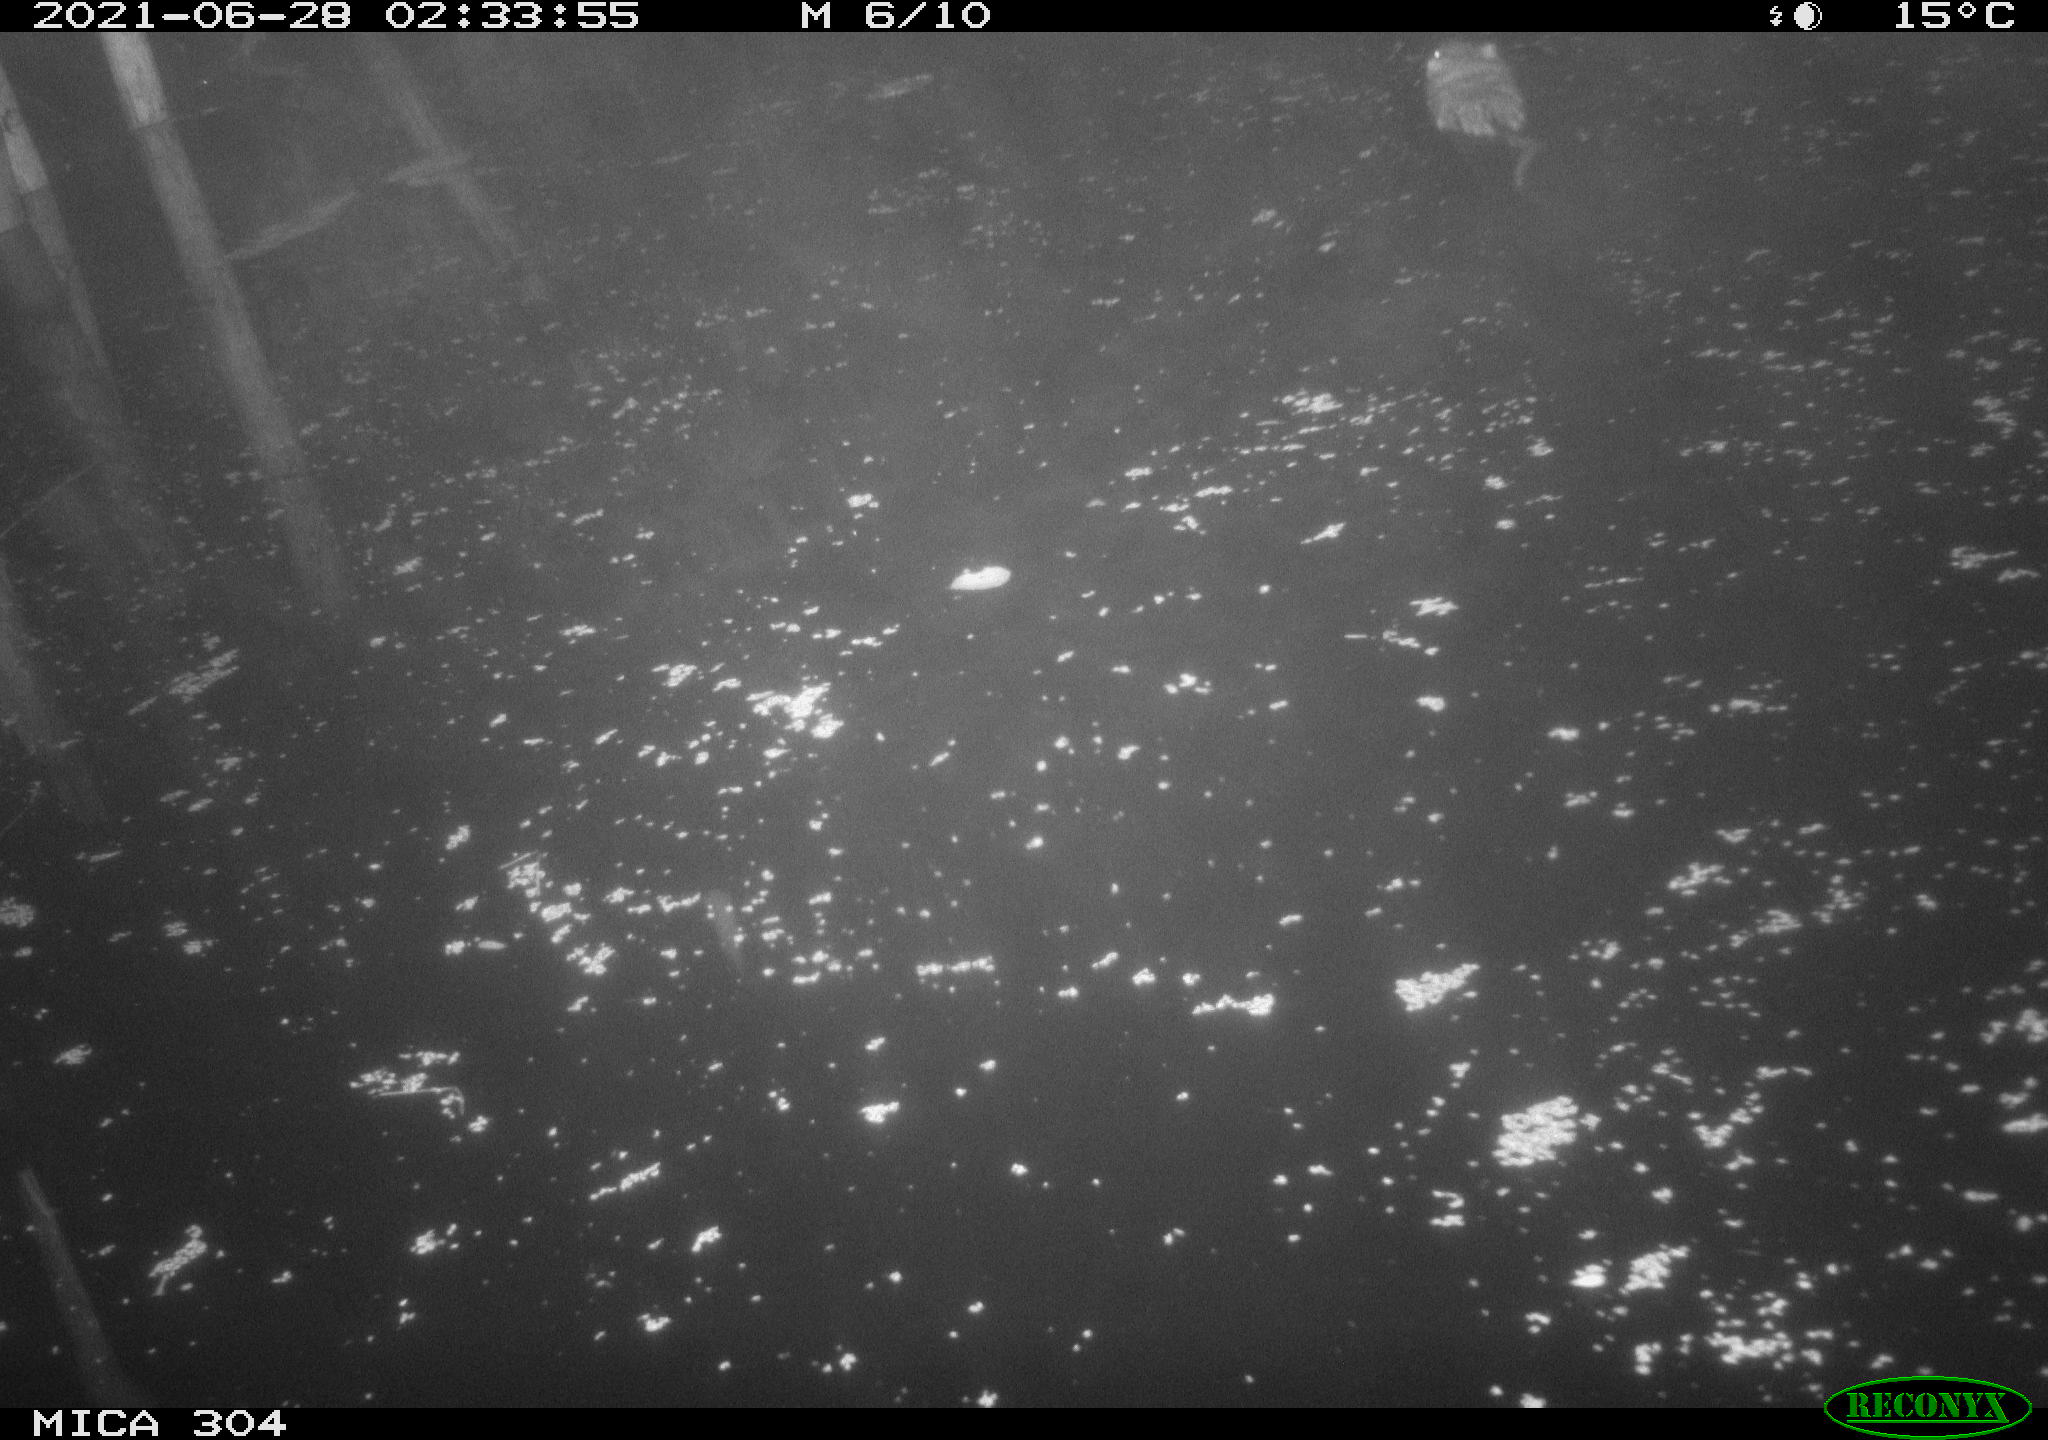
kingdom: Animalia
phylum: Chordata
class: Mammalia
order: Rodentia
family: Cricetidae
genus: Ondatra
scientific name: Ondatra zibethicus
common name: Muskrat
